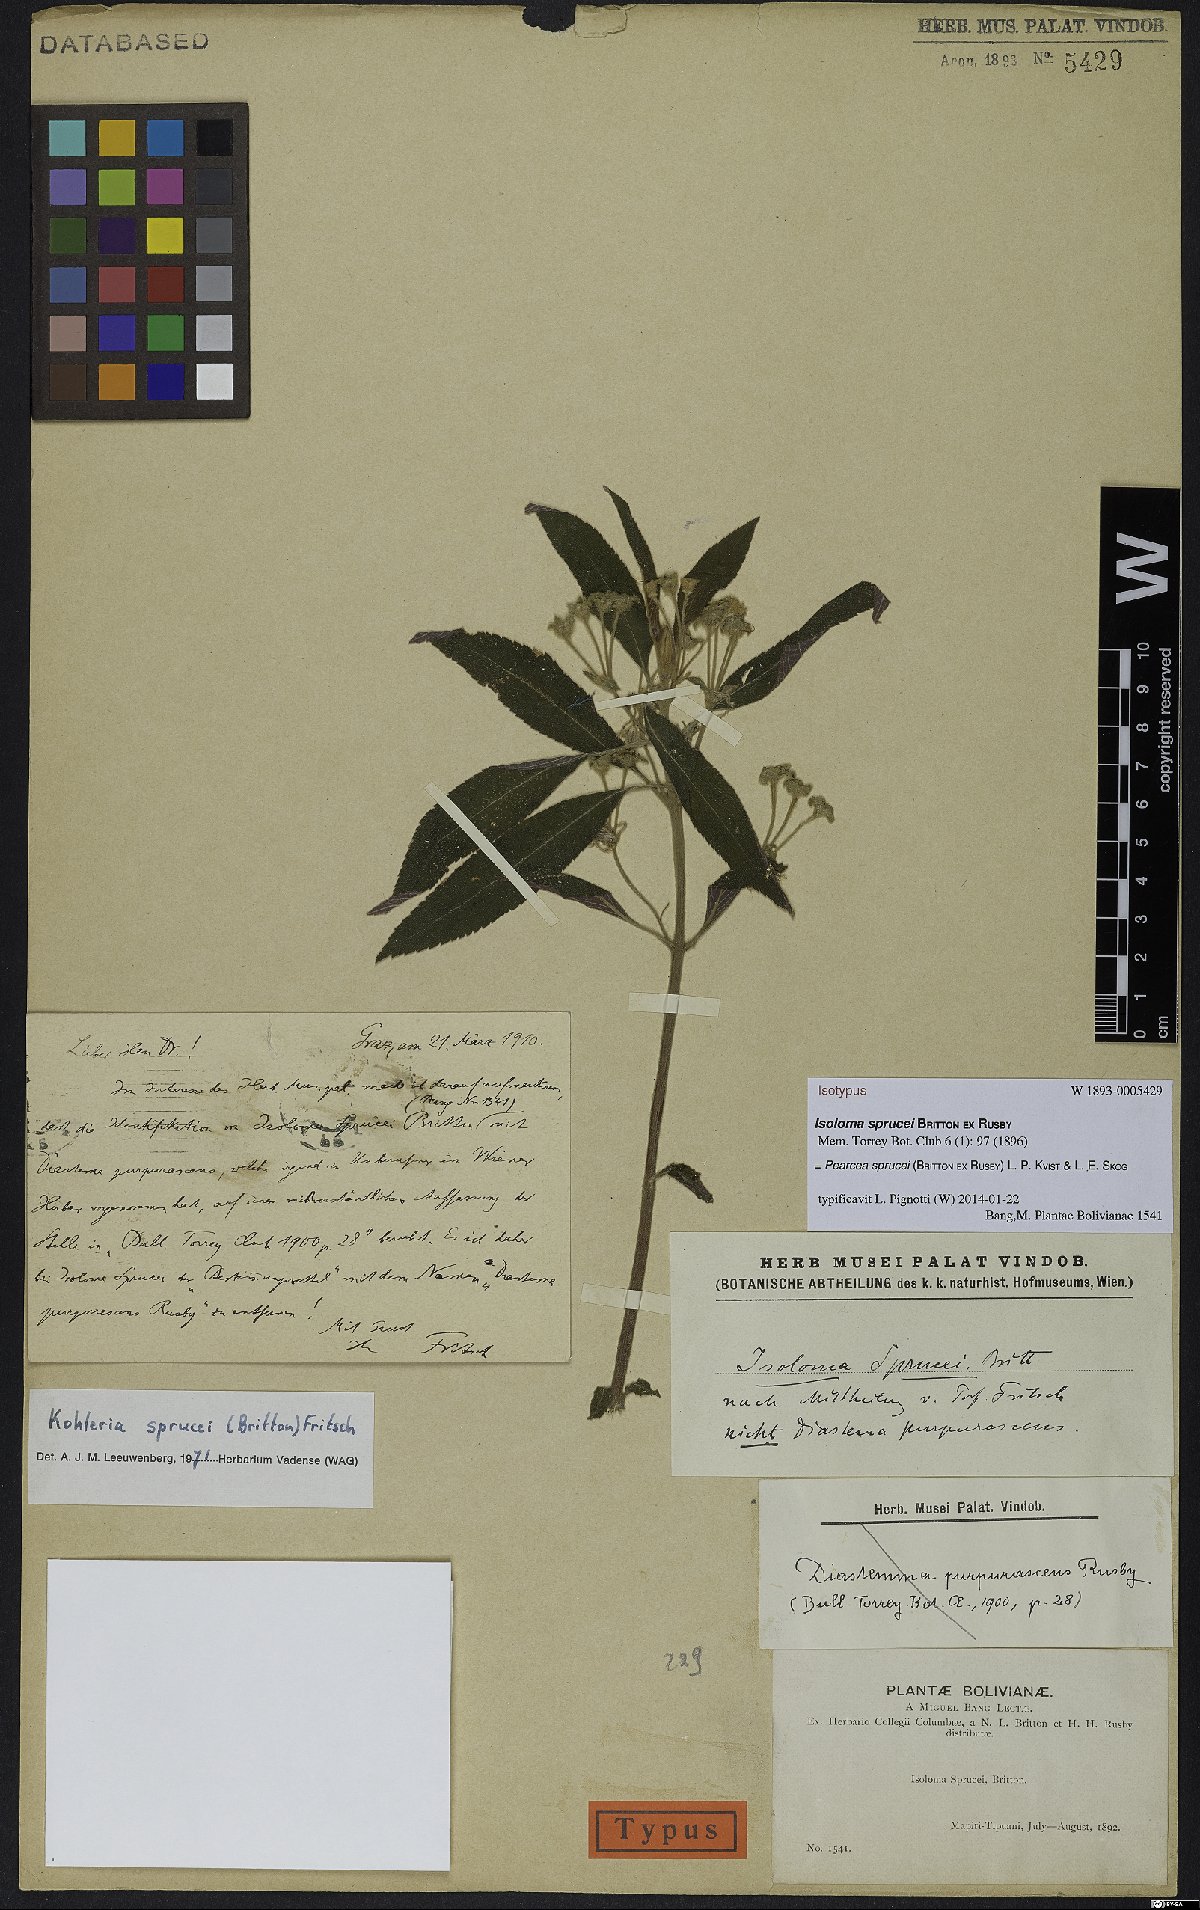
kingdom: Plantae
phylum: Tracheophyta
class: Magnoliopsida
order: Lamiales
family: Gesneriaceae
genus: Pearcea
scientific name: Pearcea sprucei
